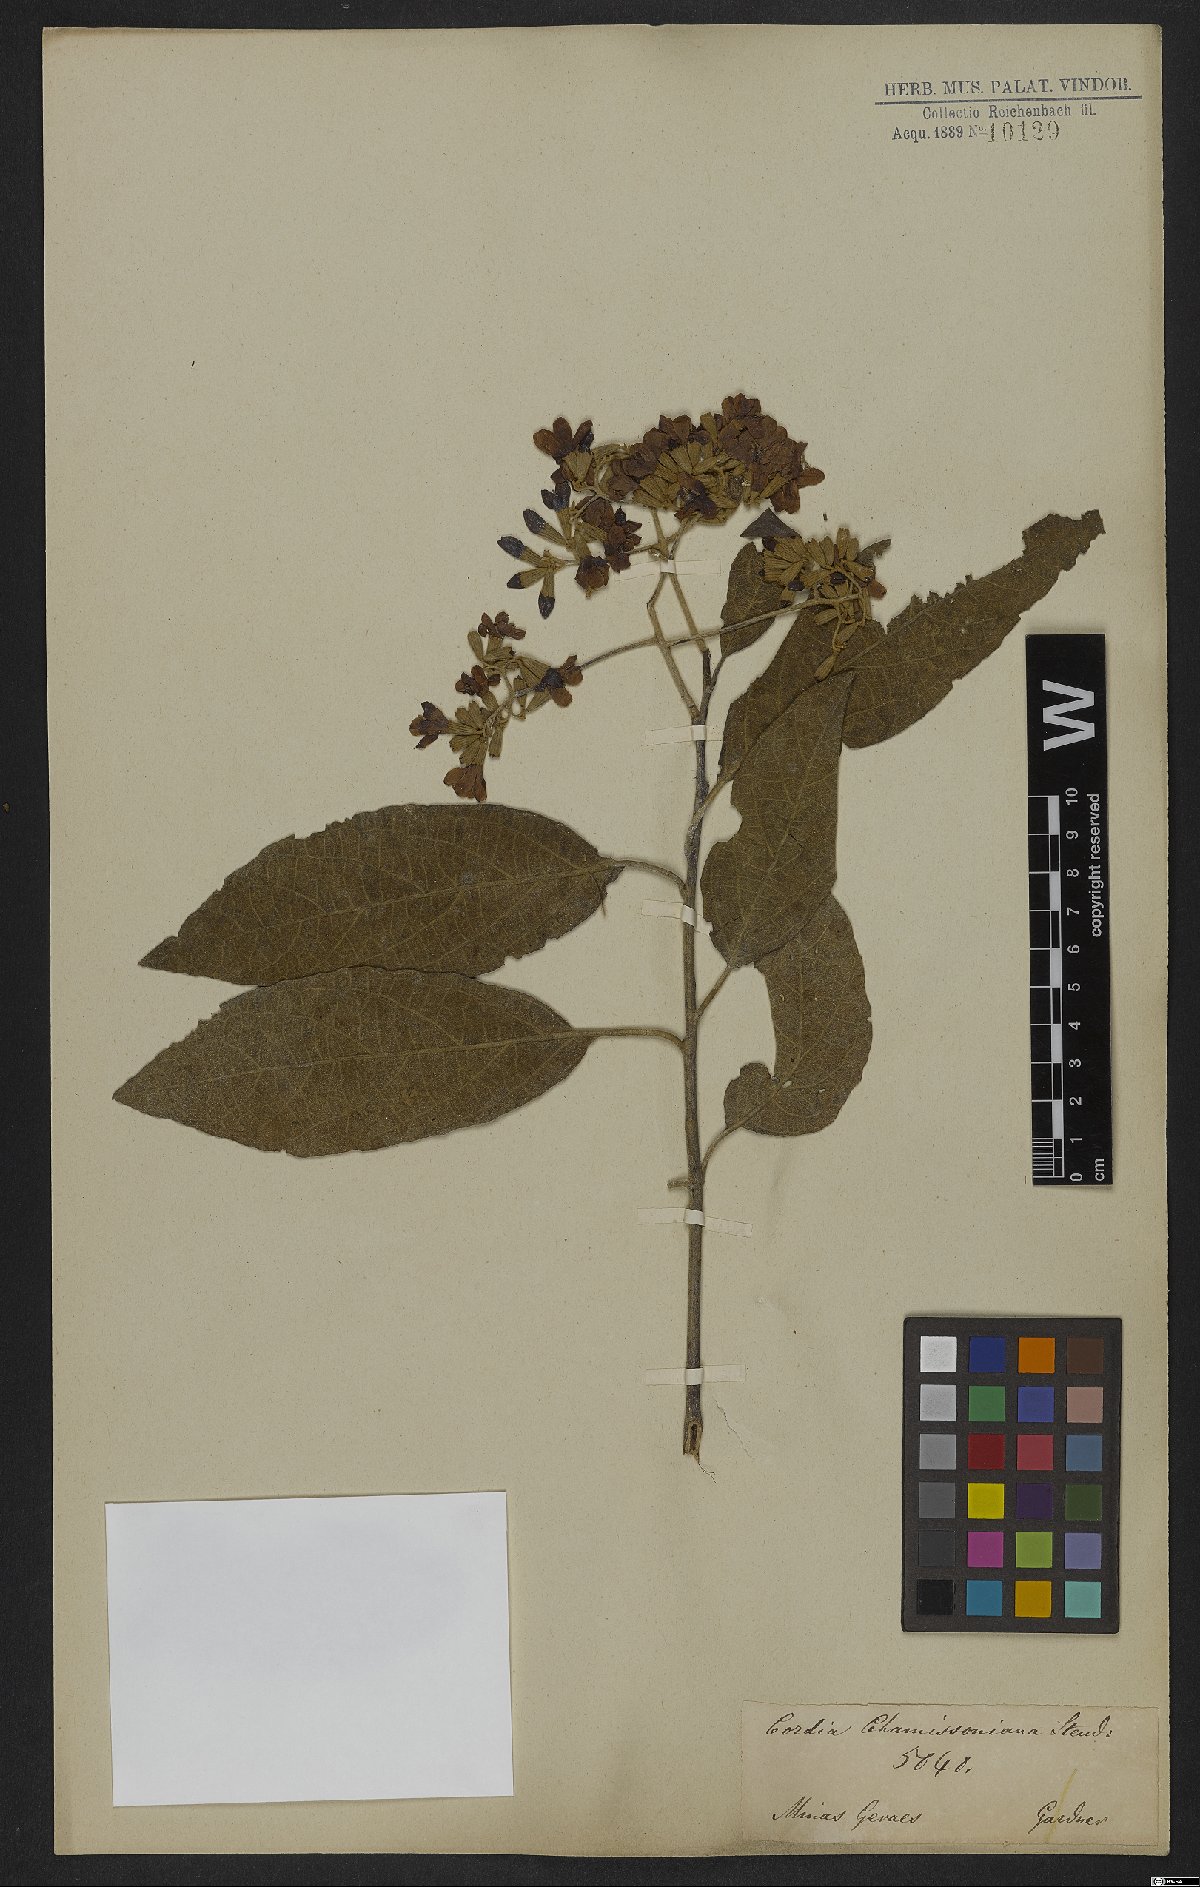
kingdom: Plantae
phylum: Tracheophyta
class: Magnoliopsida
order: Boraginales
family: Cordiaceae
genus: Cordia
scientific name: Cordia chamissoniana
